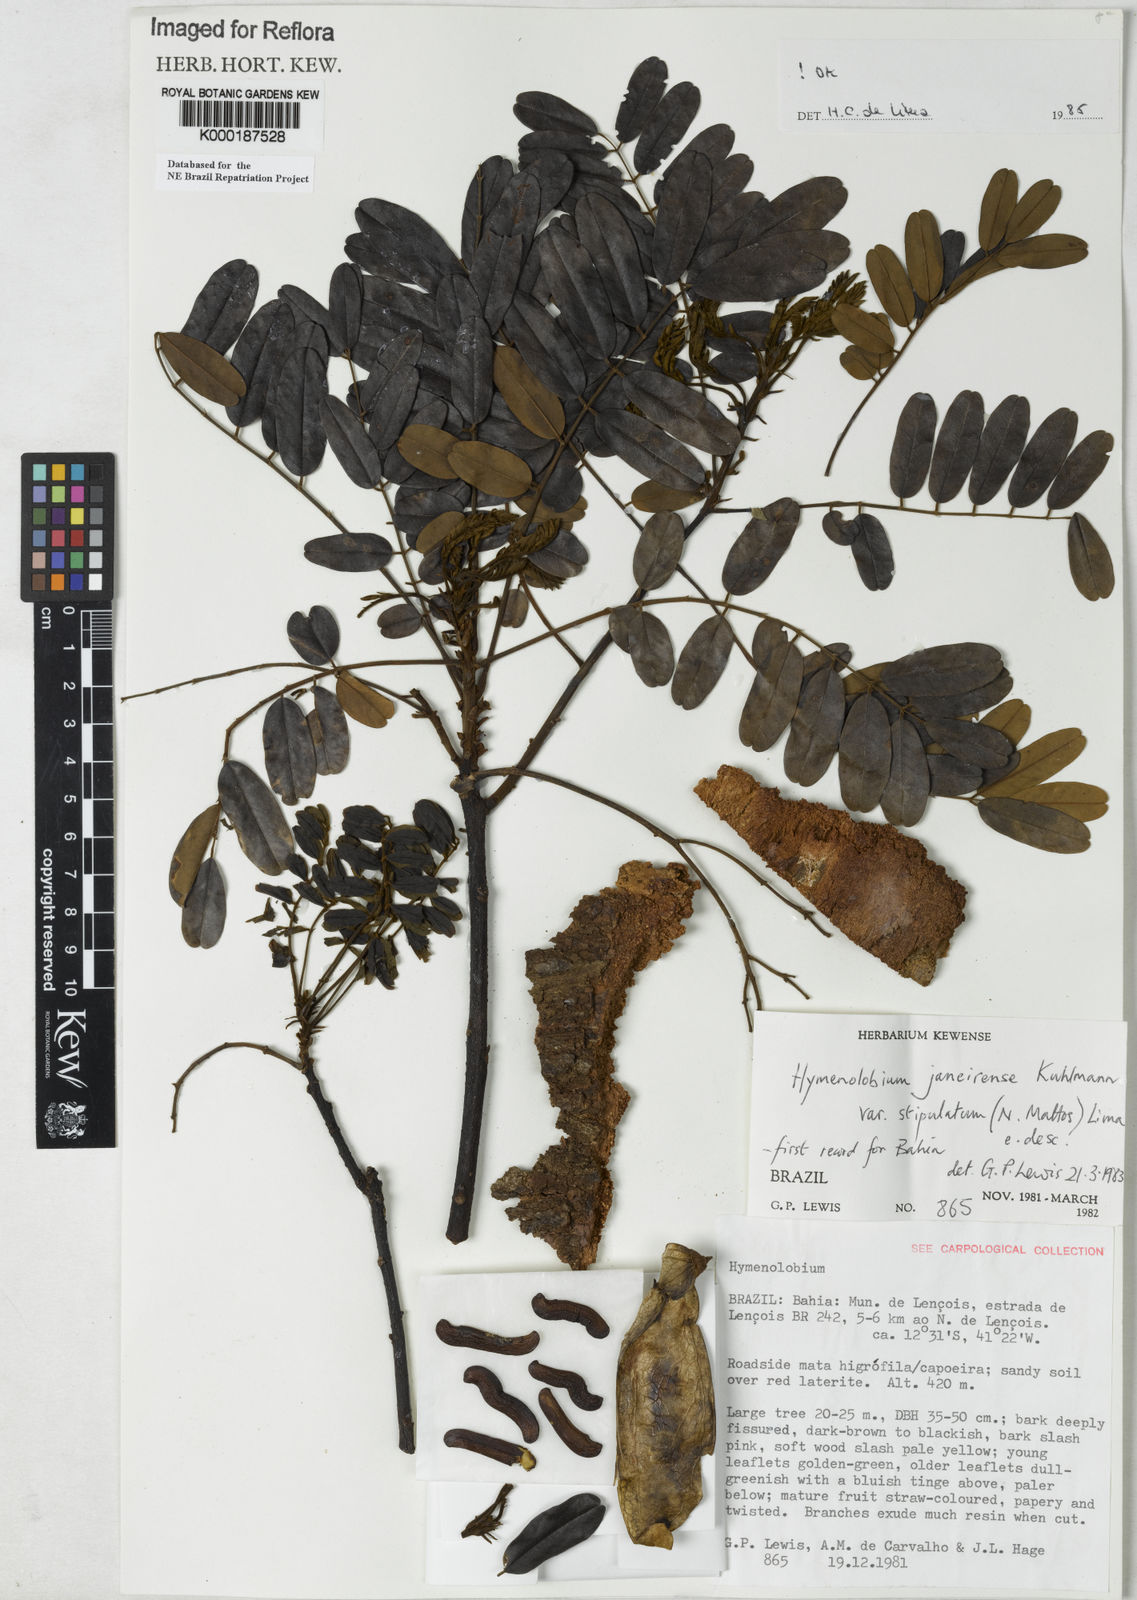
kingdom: Plantae
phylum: Tracheophyta
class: Magnoliopsida
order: Fabales
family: Fabaceae
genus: Hymenolobium
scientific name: Hymenolobium janeirense
